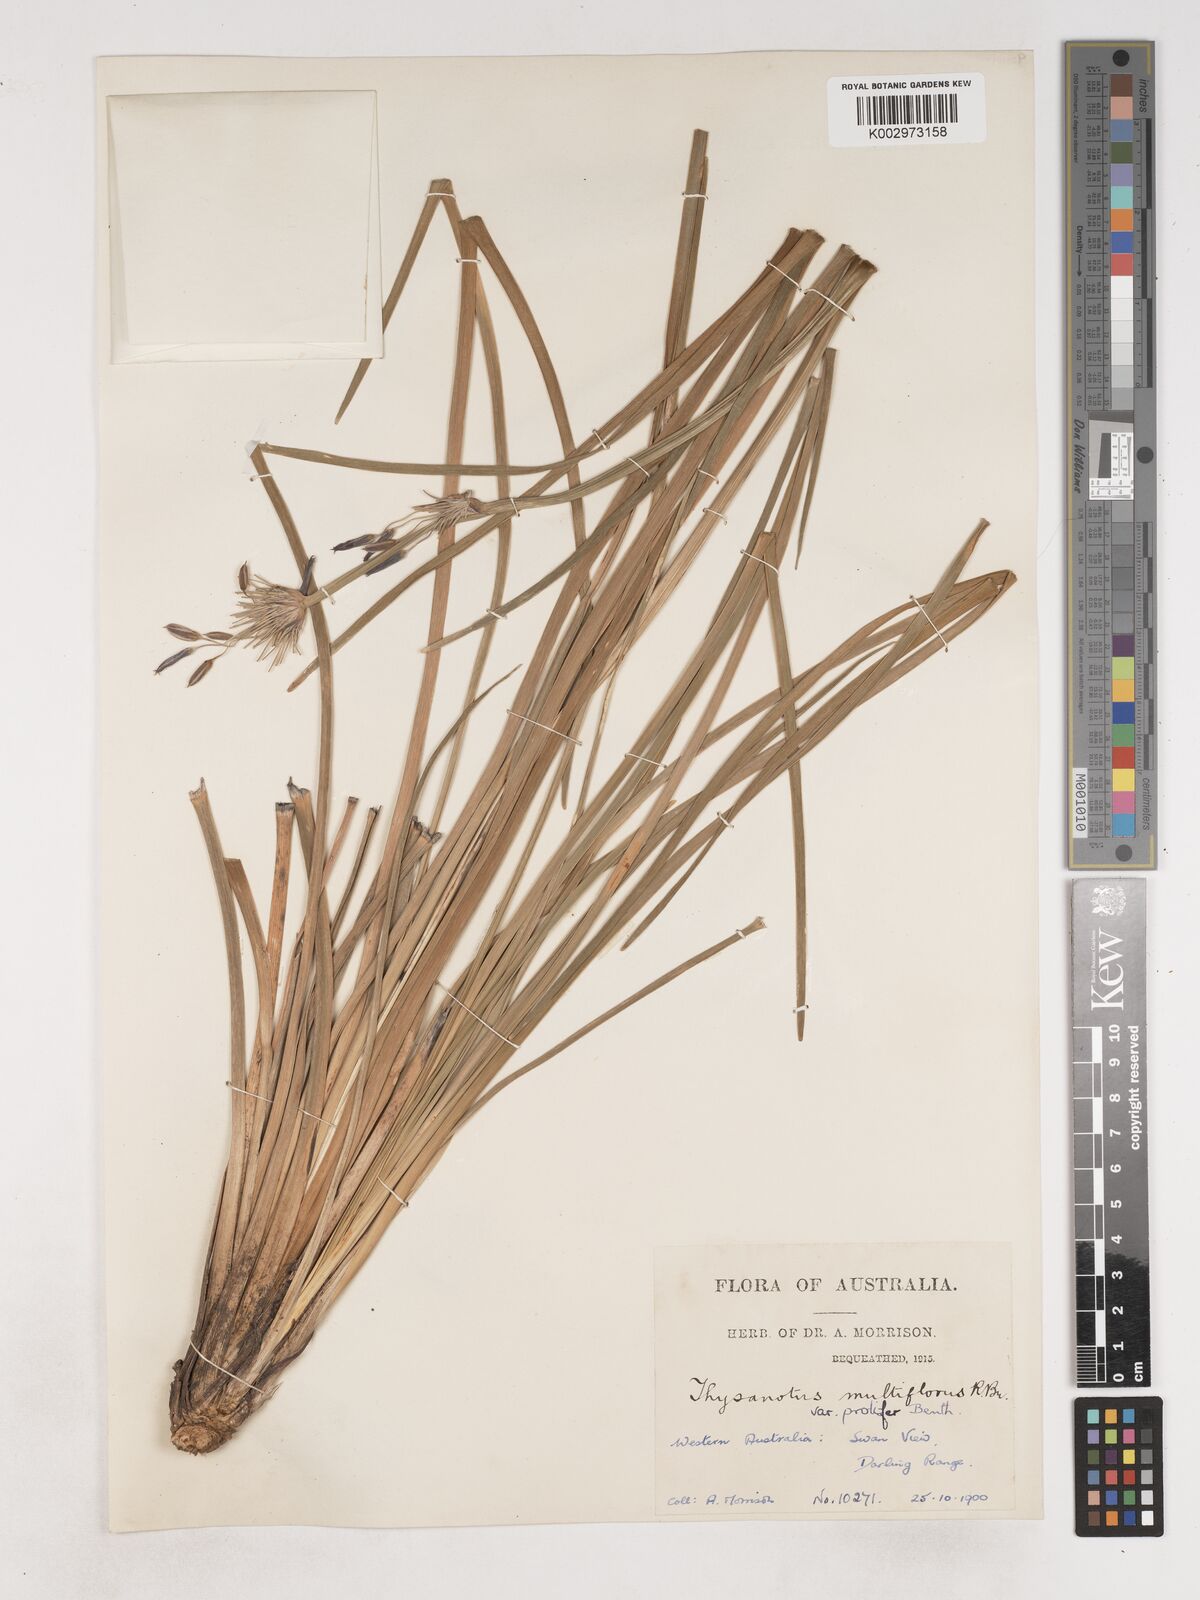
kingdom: Plantae
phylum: Tracheophyta
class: Liliopsida
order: Asparagales
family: Asparagaceae
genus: Thysanotus
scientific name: Thysanotus multiflorus
